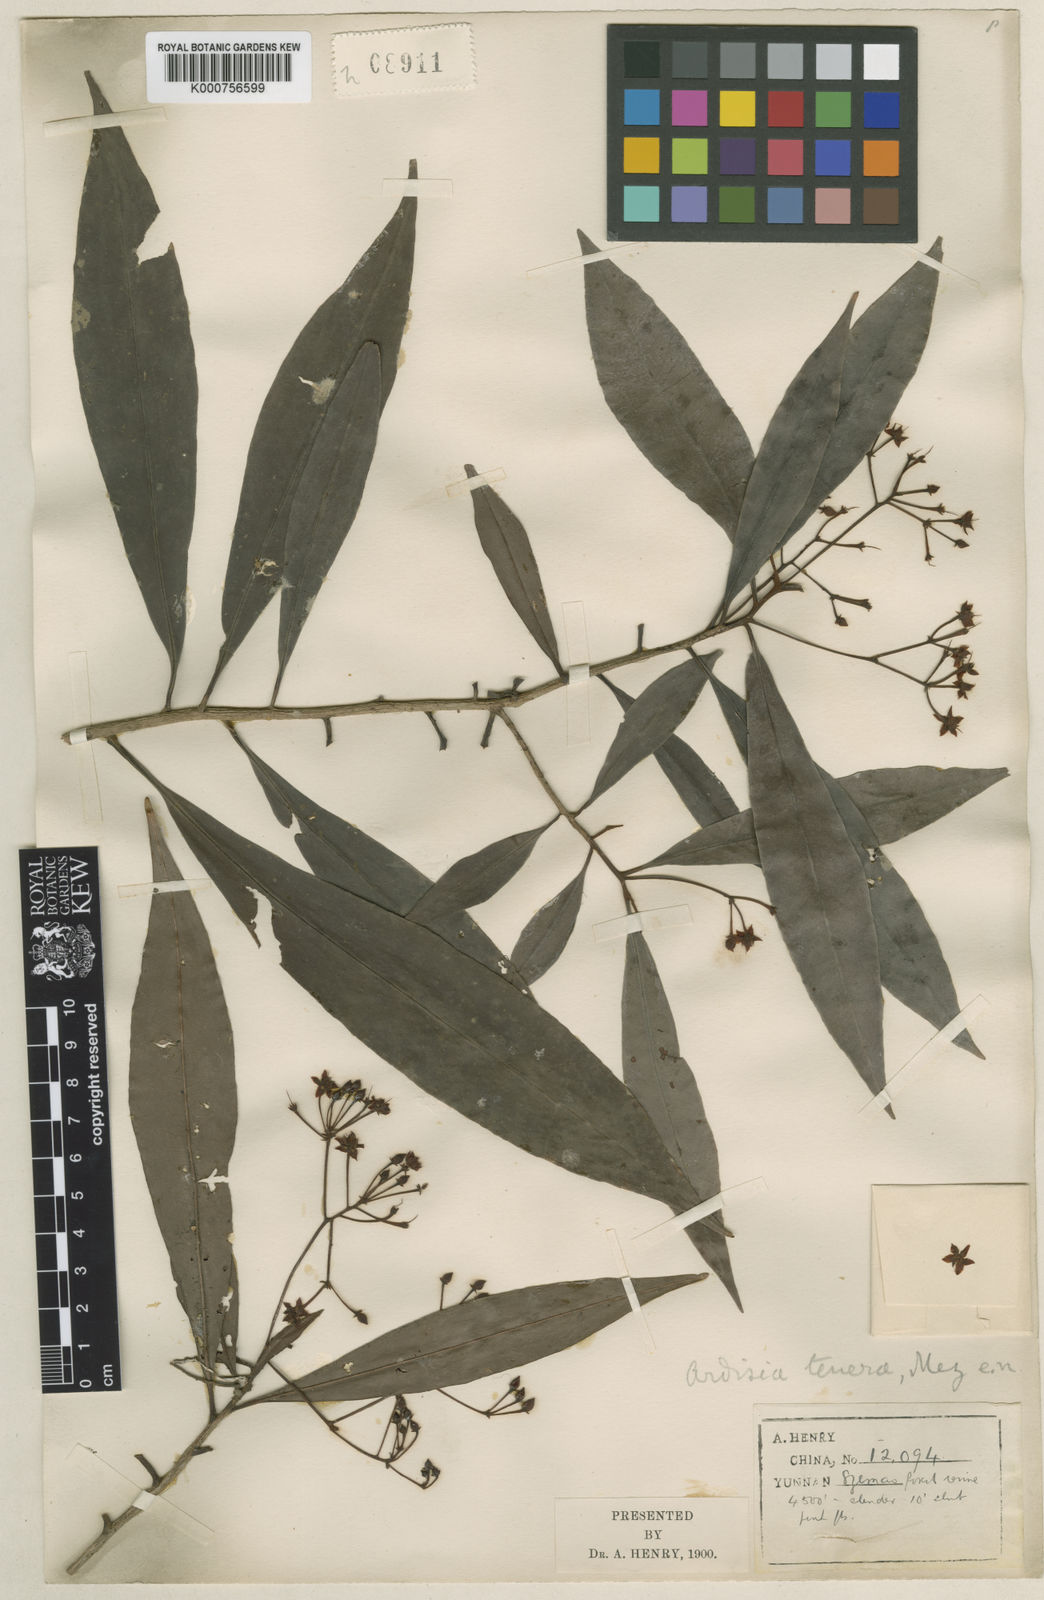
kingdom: Plantae
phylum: Tracheophyta
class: Magnoliopsida
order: Ericales
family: Primulaceae
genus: Ardisia
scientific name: Ardisia floribunda
